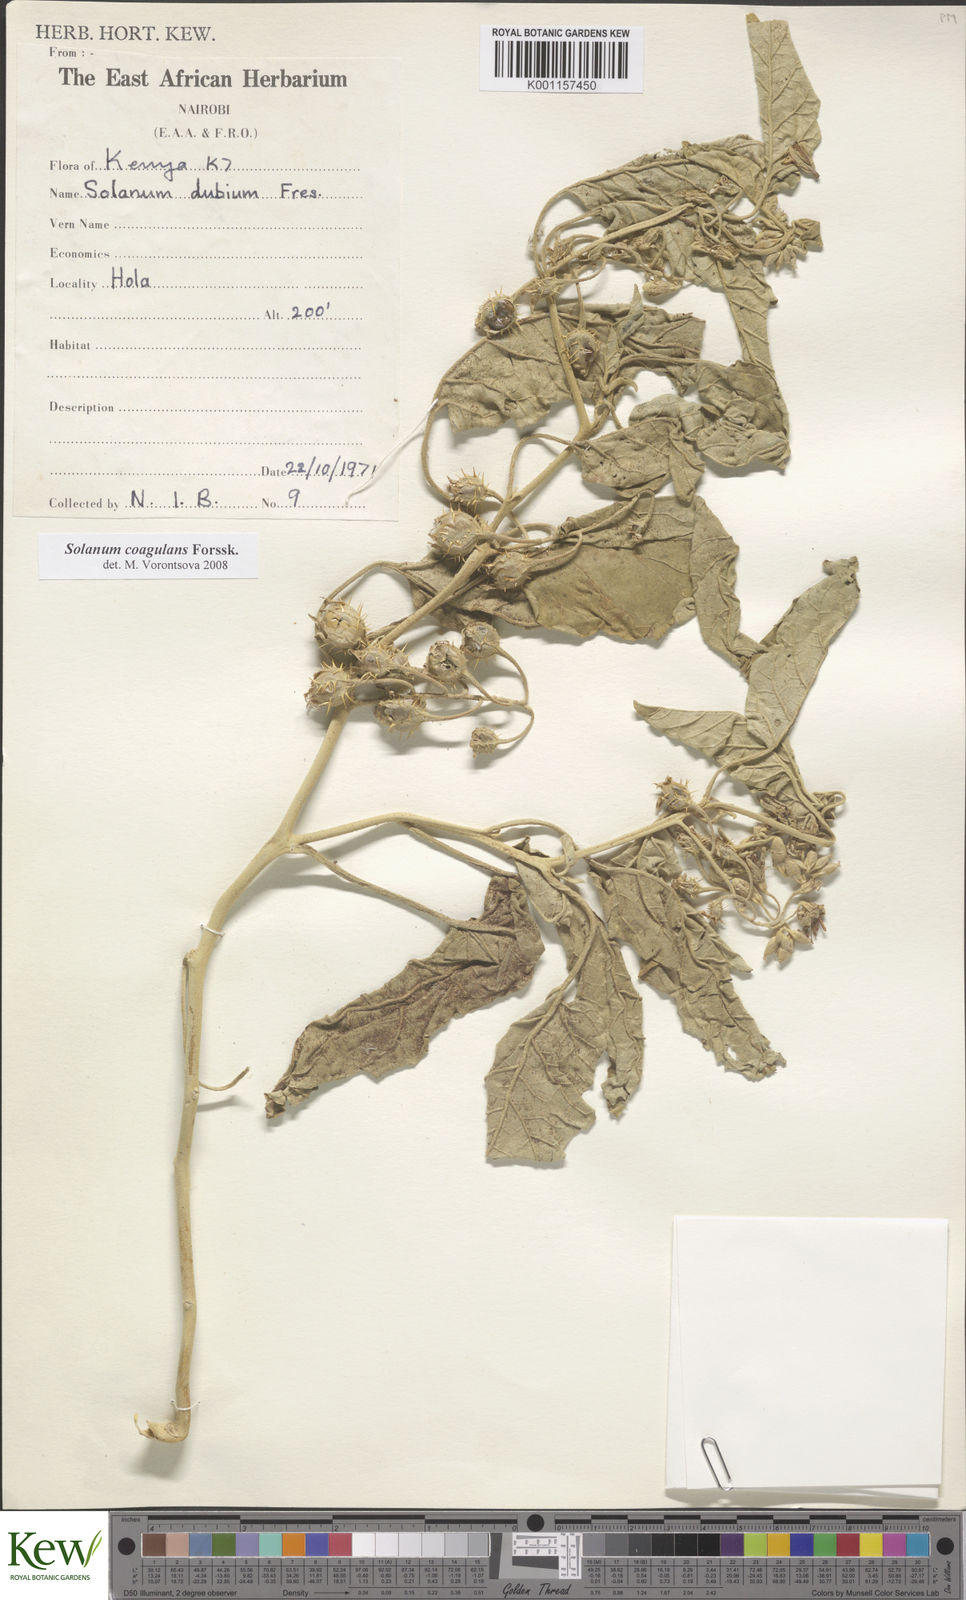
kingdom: Plantae
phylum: Tracheophyta
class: Magnoliopsida
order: Solanales
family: Solanaceae
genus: Solanum
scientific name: Solanum coagulans
